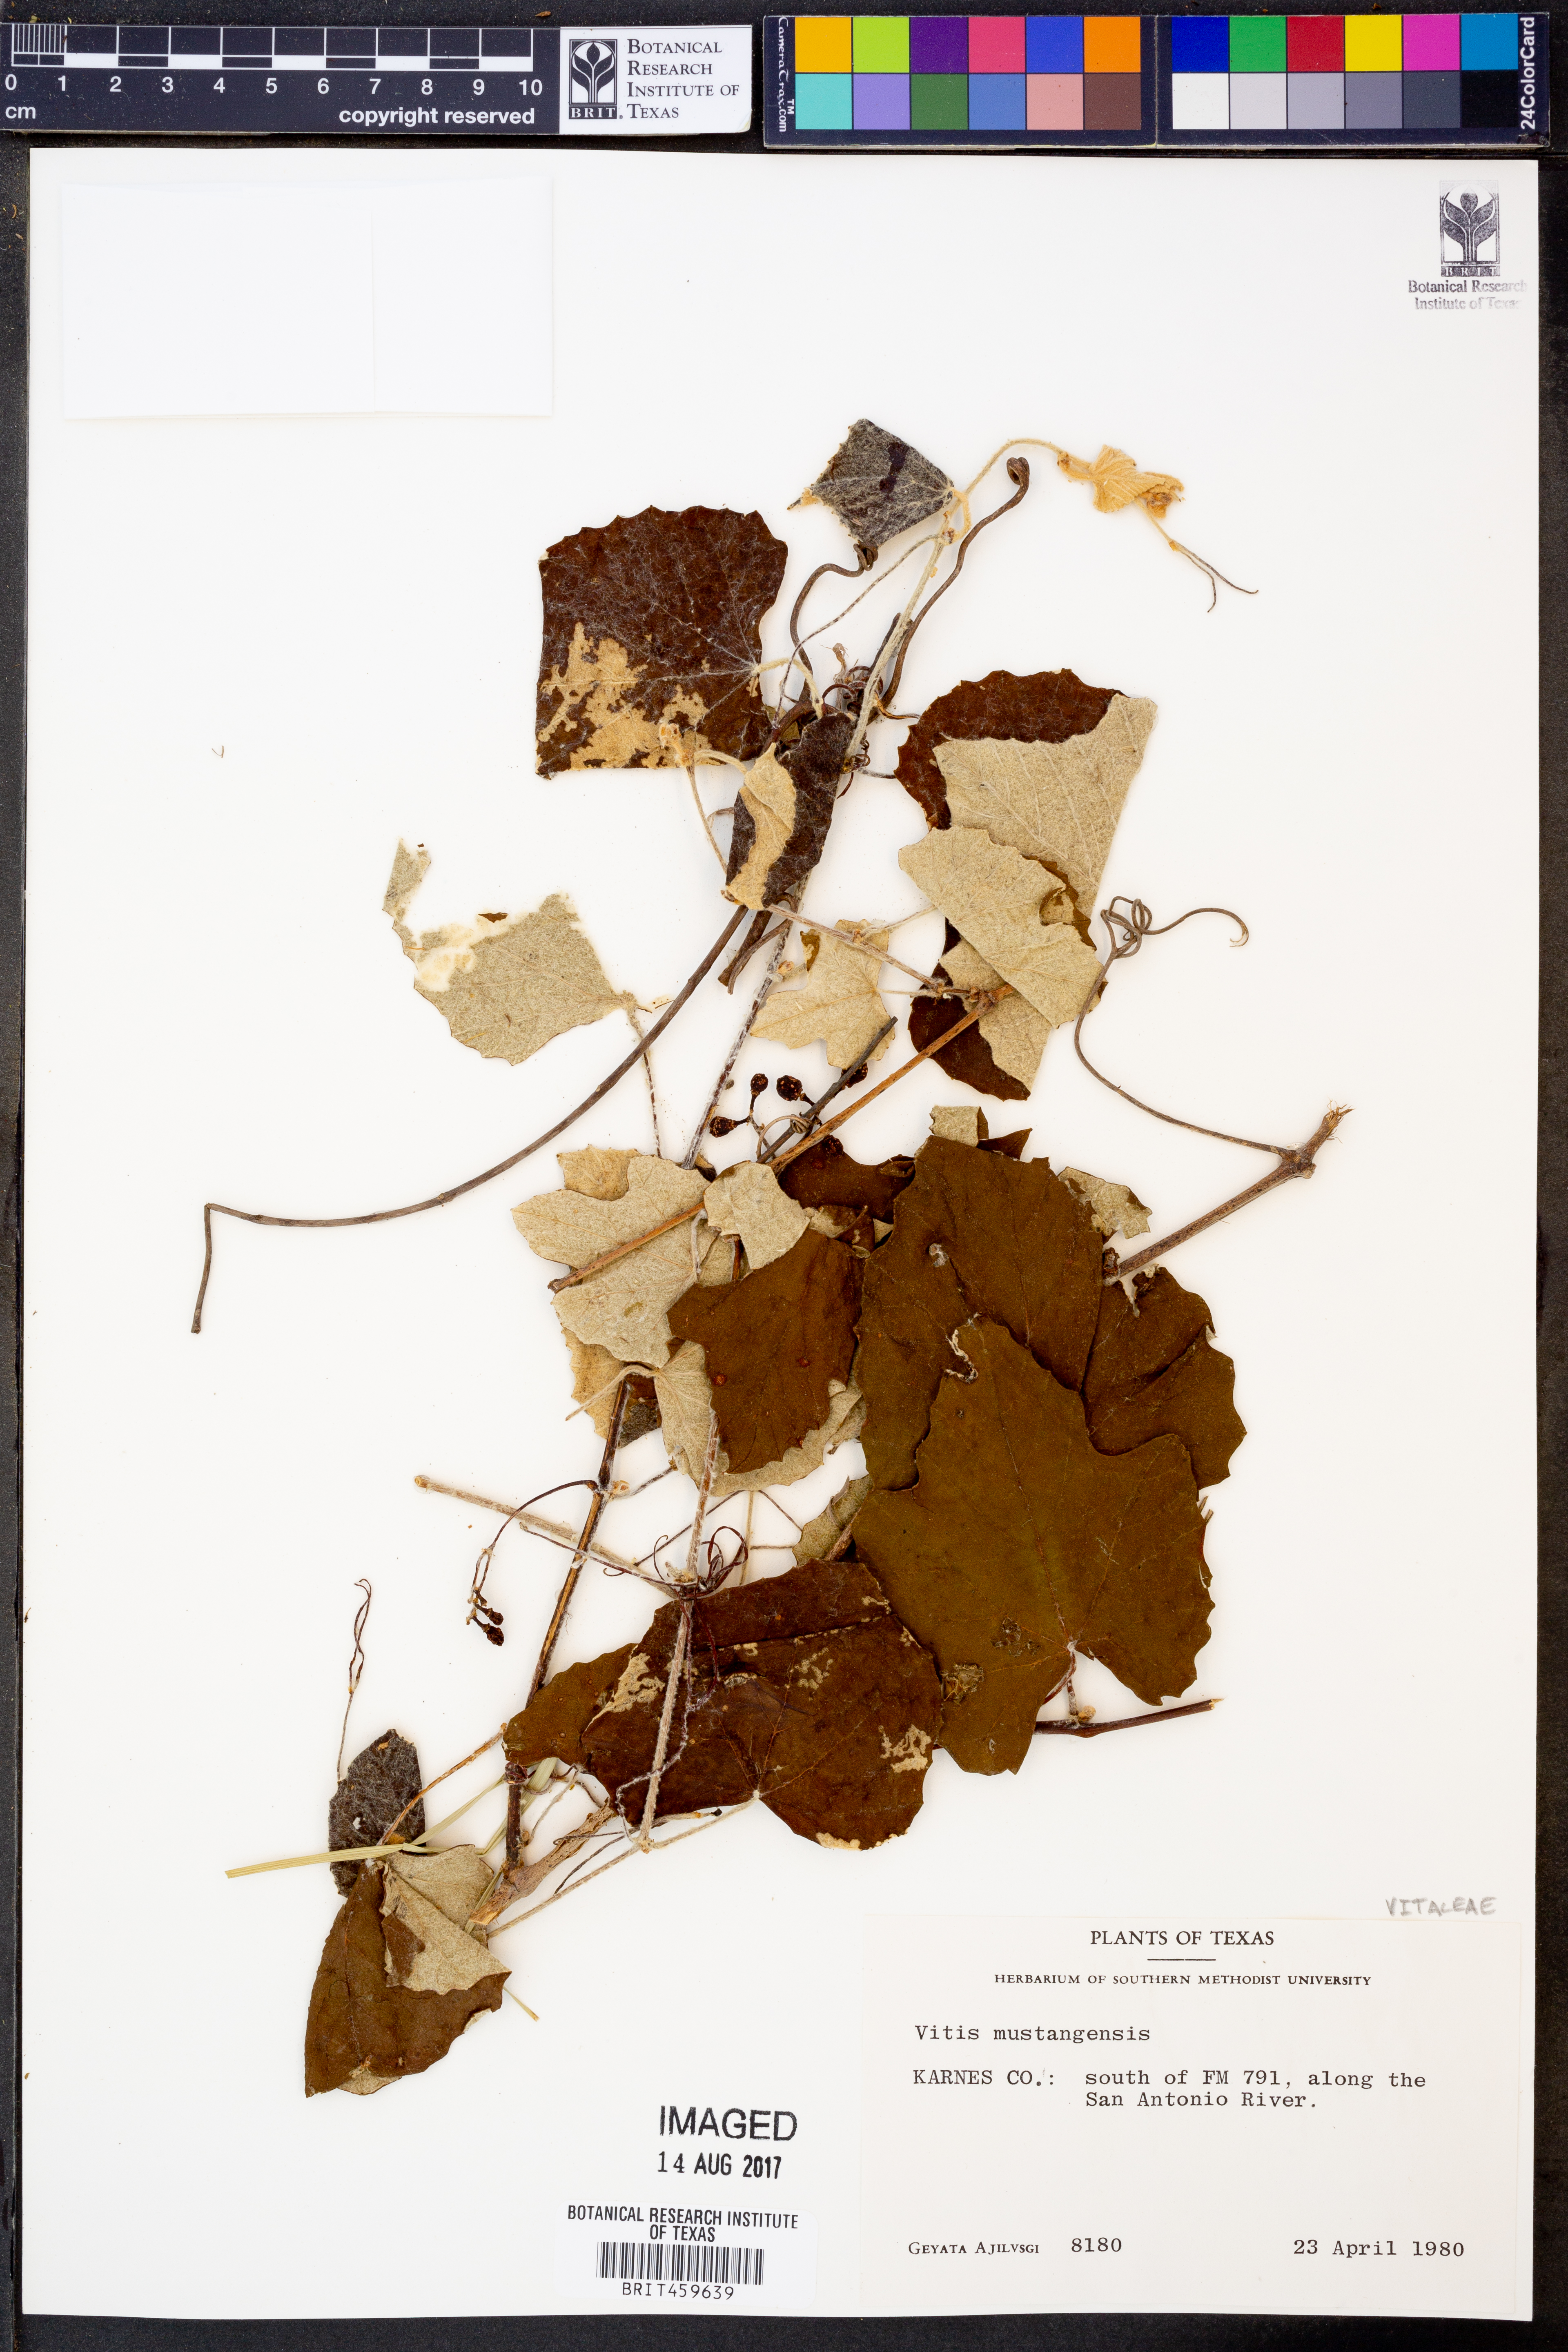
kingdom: Plantae
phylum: Tracheophyta
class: Magnoliopsida
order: Vitales
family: Vitaceae
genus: Vitis
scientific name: Vitis mustangensis
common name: Mustang grape
